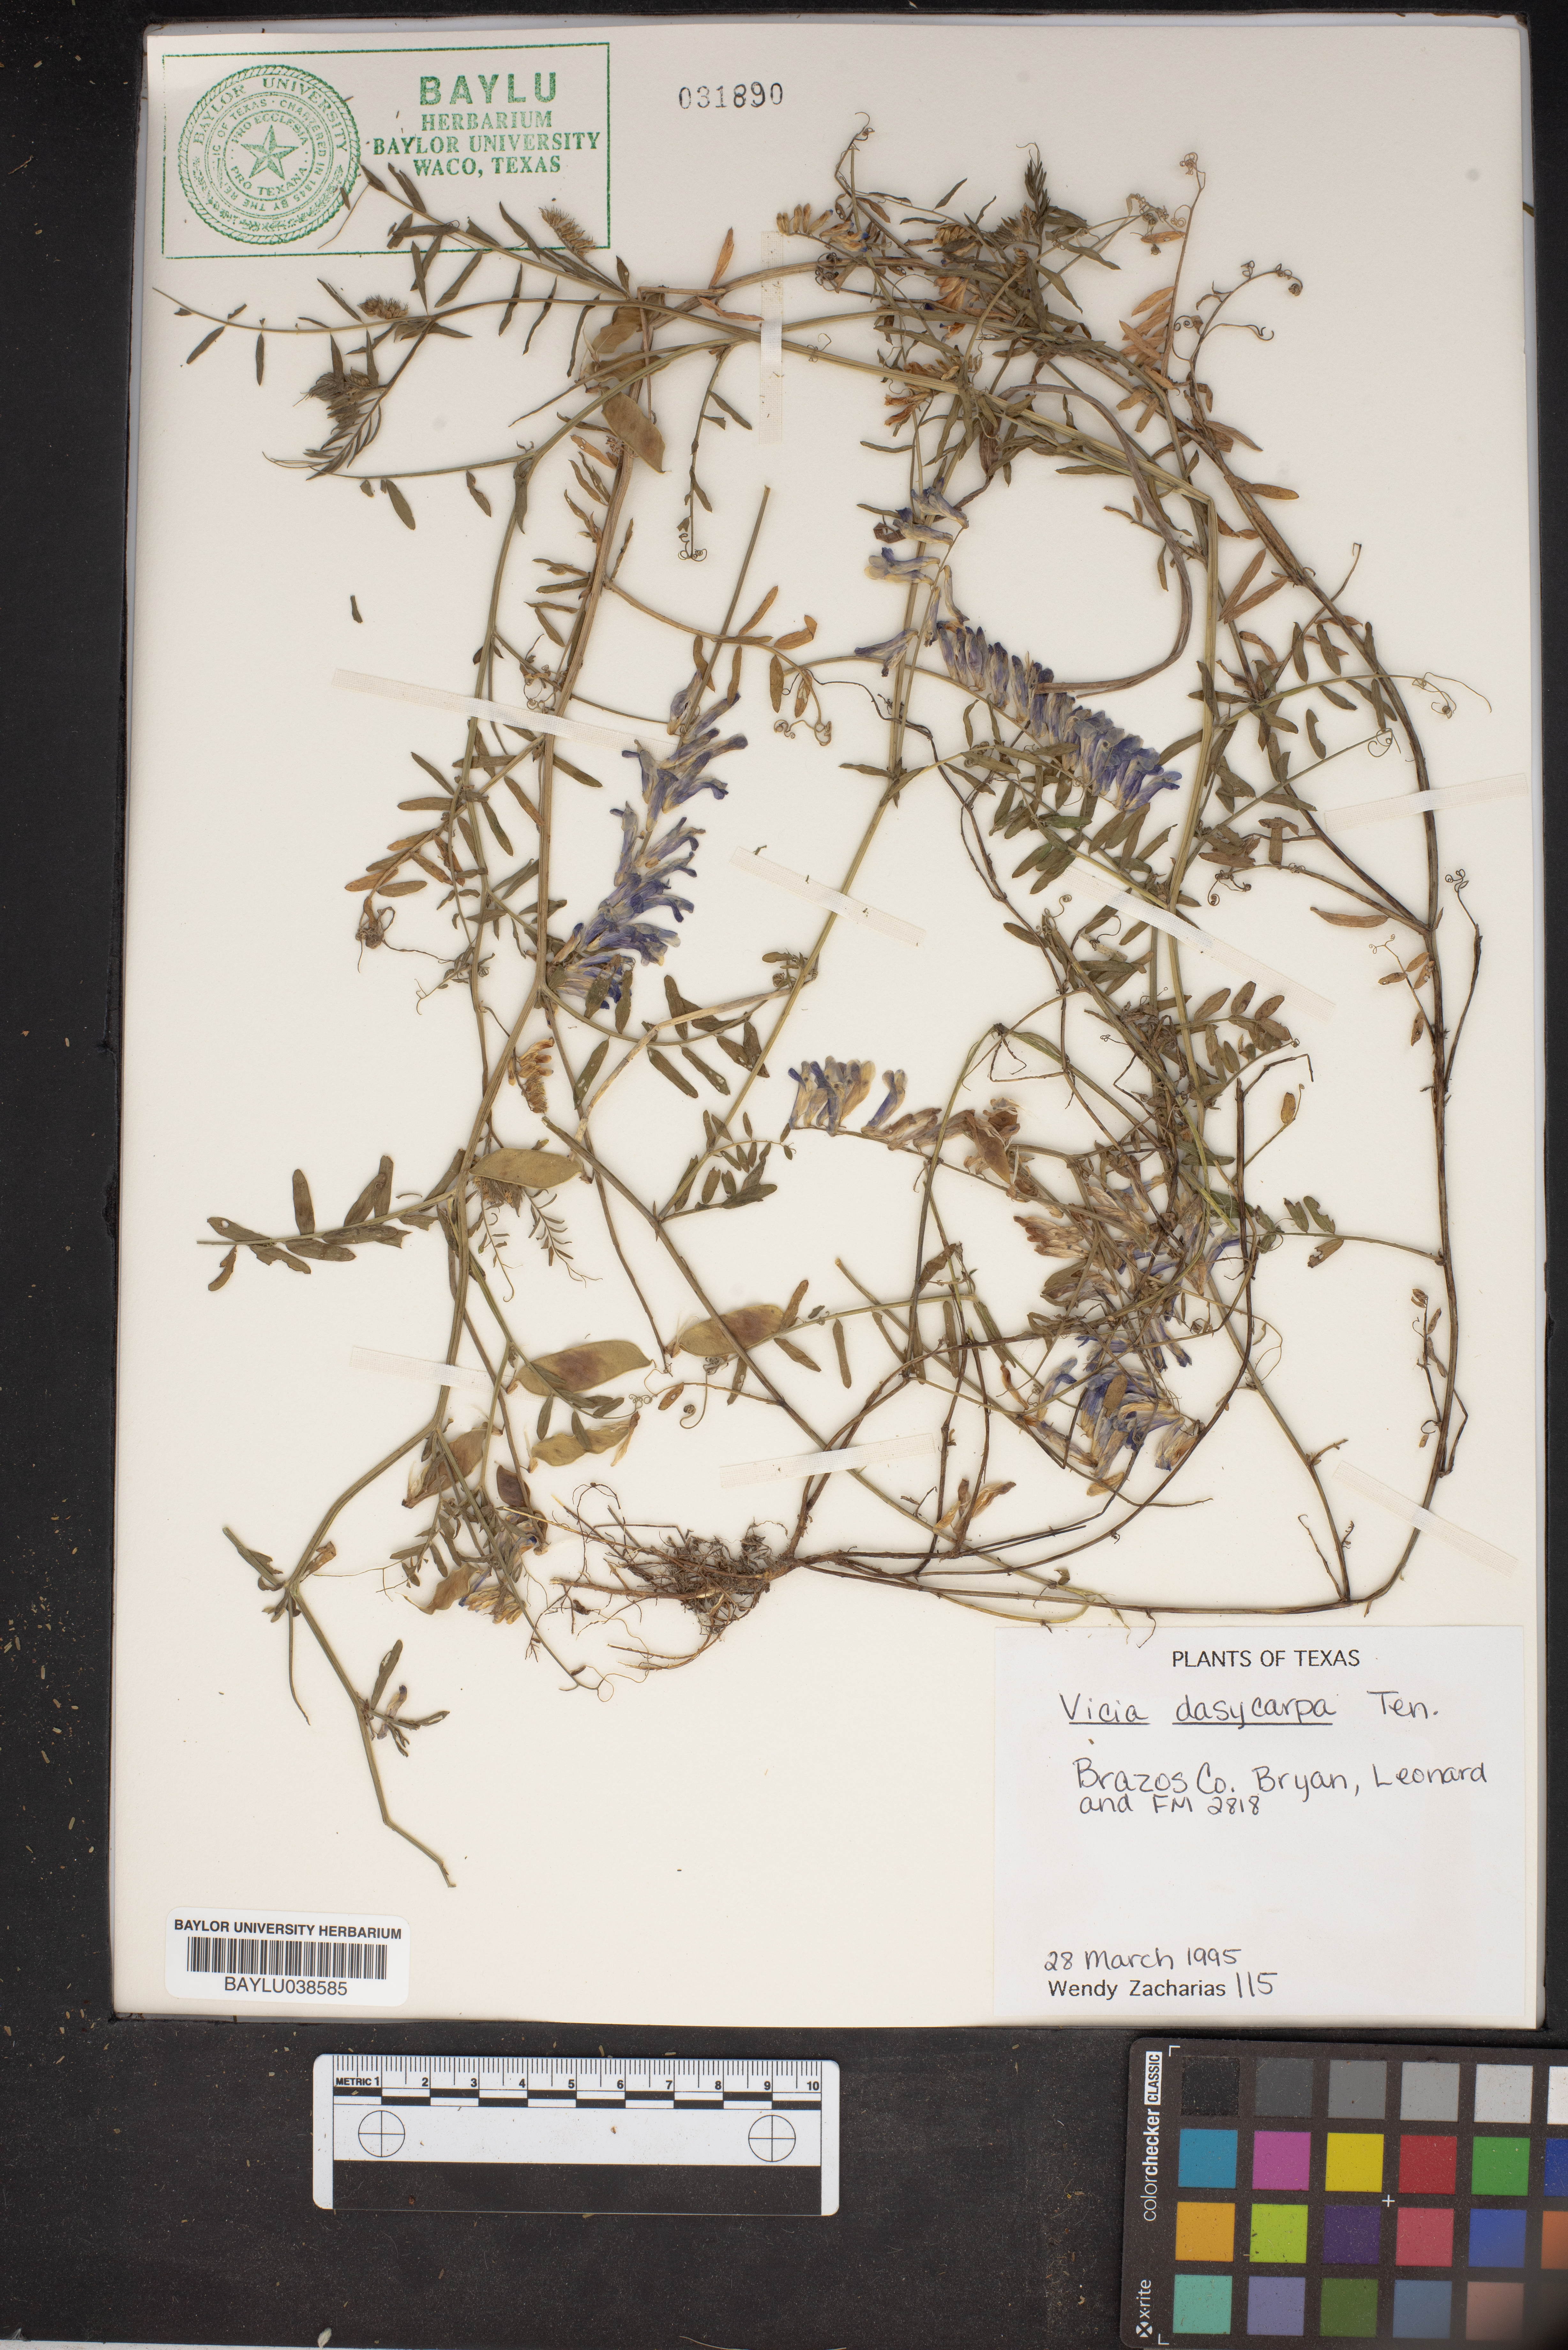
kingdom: Plantae
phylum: Tracheophyta
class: Magnoliopsida
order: Fabales
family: Fabaceae
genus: Vicia
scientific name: Vicia villosa
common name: Fodder vetch
